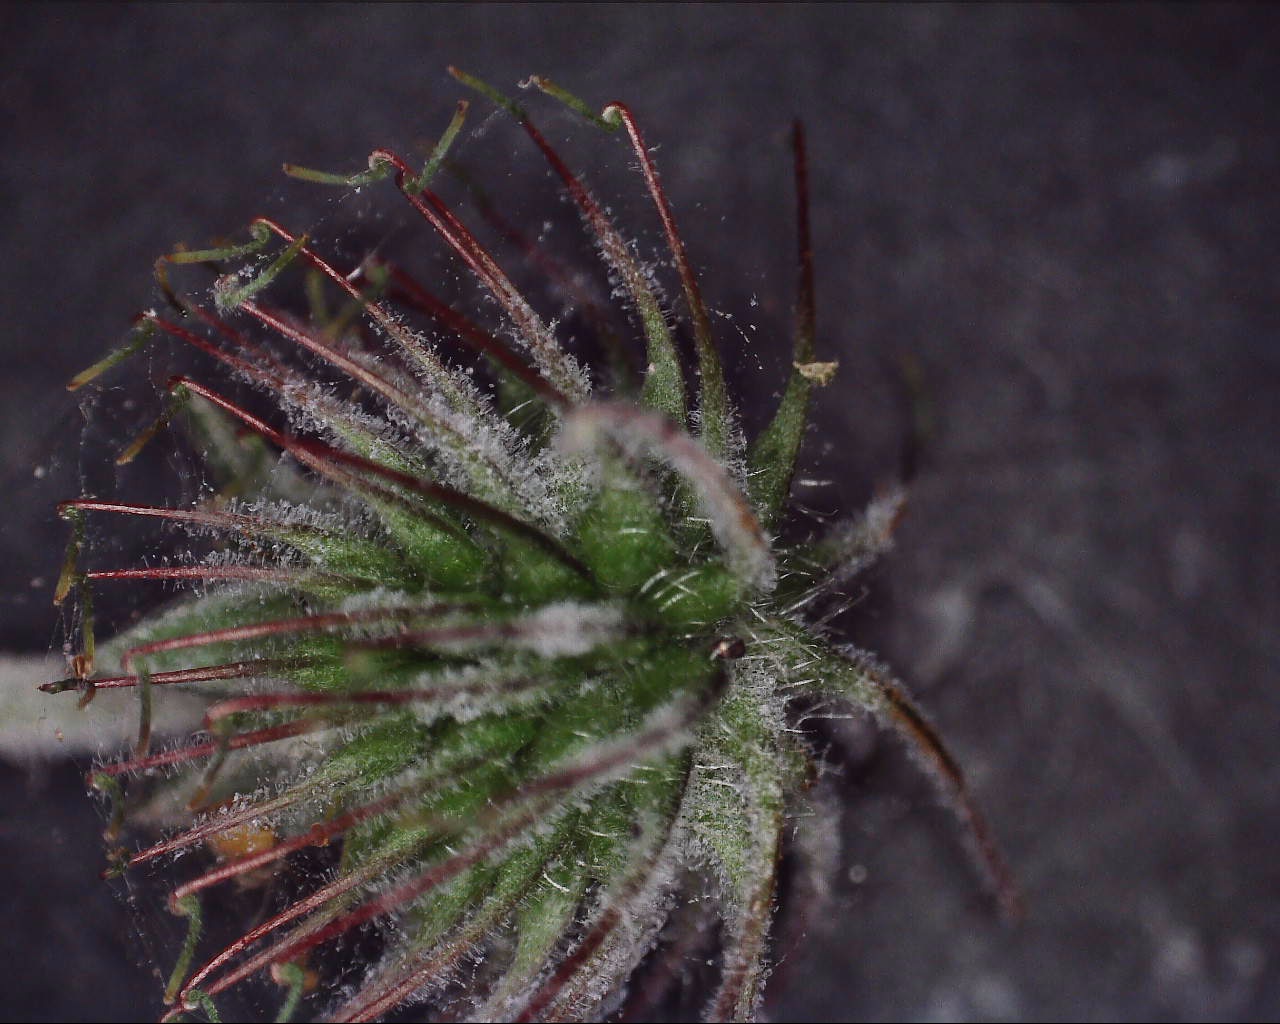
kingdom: Fungi
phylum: Ascomycota
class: Leotiomycetes
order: Helotiales
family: Erysiphaceae
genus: Podosphaera
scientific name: Podosphaera aphanis
